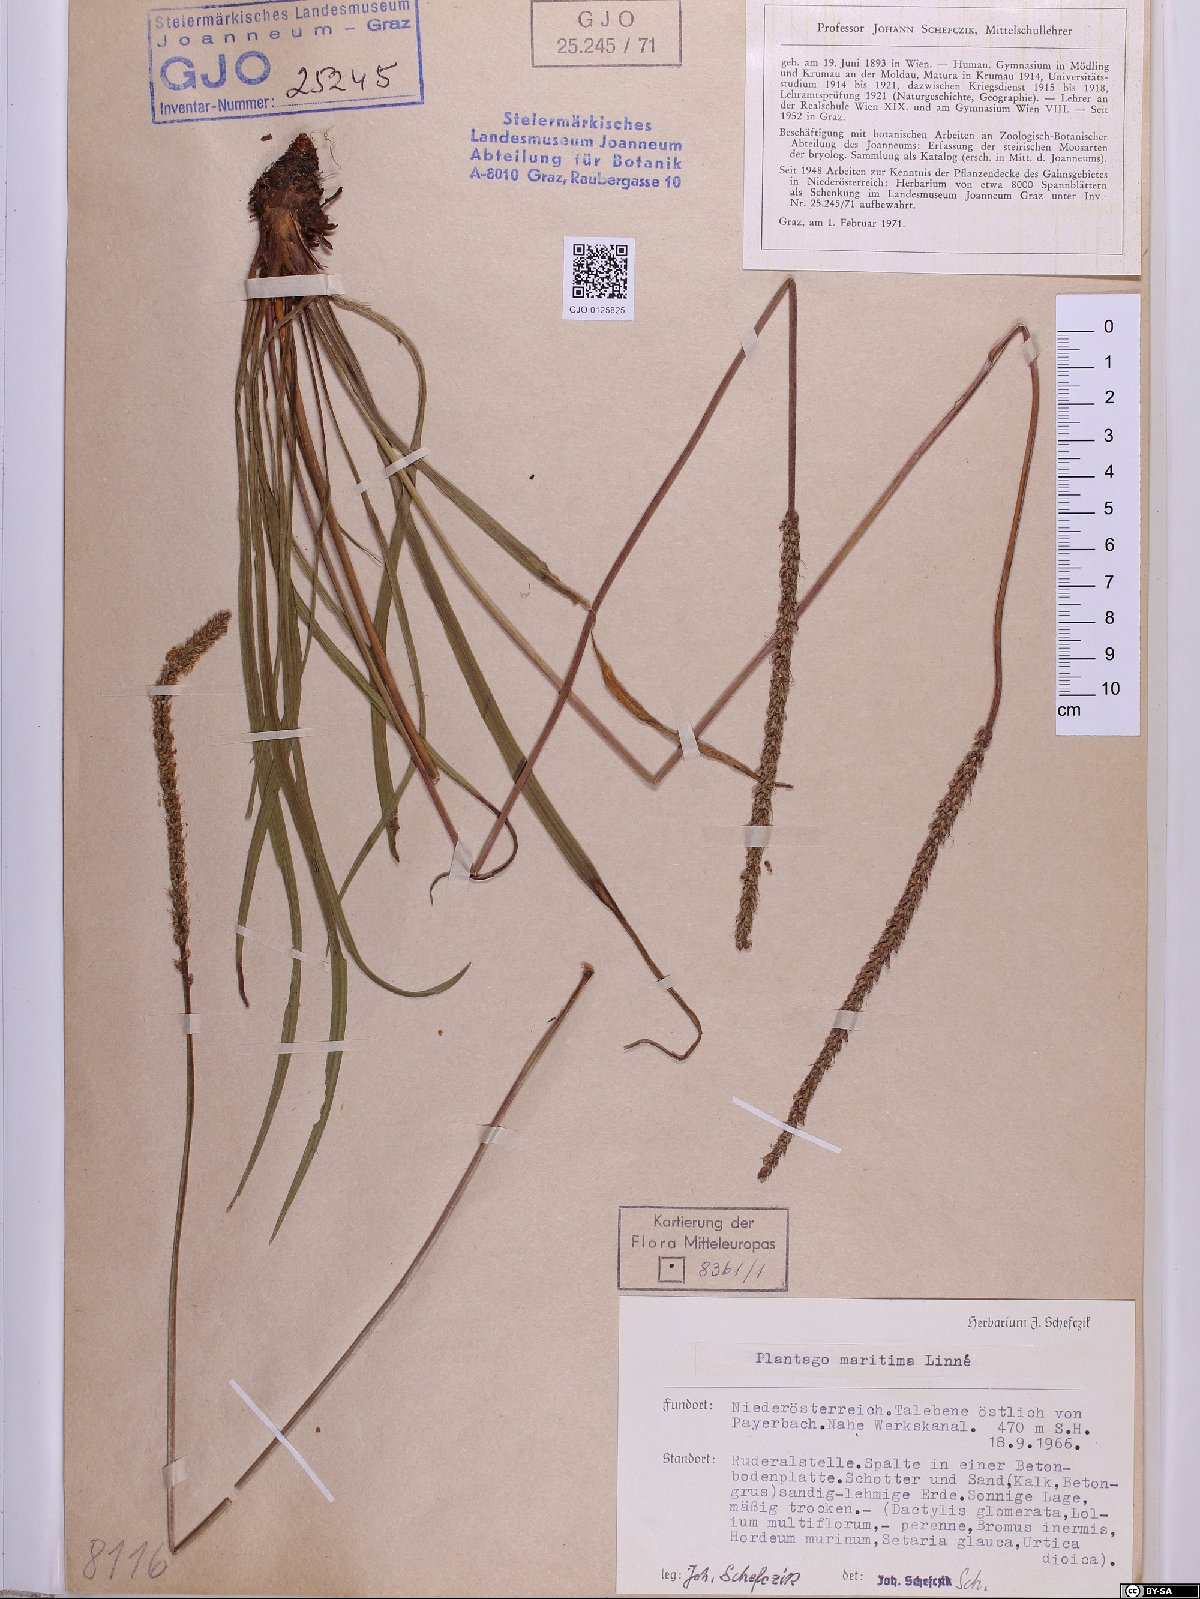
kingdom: Plantae
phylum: Tracheophyta
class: Magnoliopsida
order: Lamiales
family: Plantaginaceae
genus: Plantago
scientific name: Plantago maritima
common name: Sea plantain
